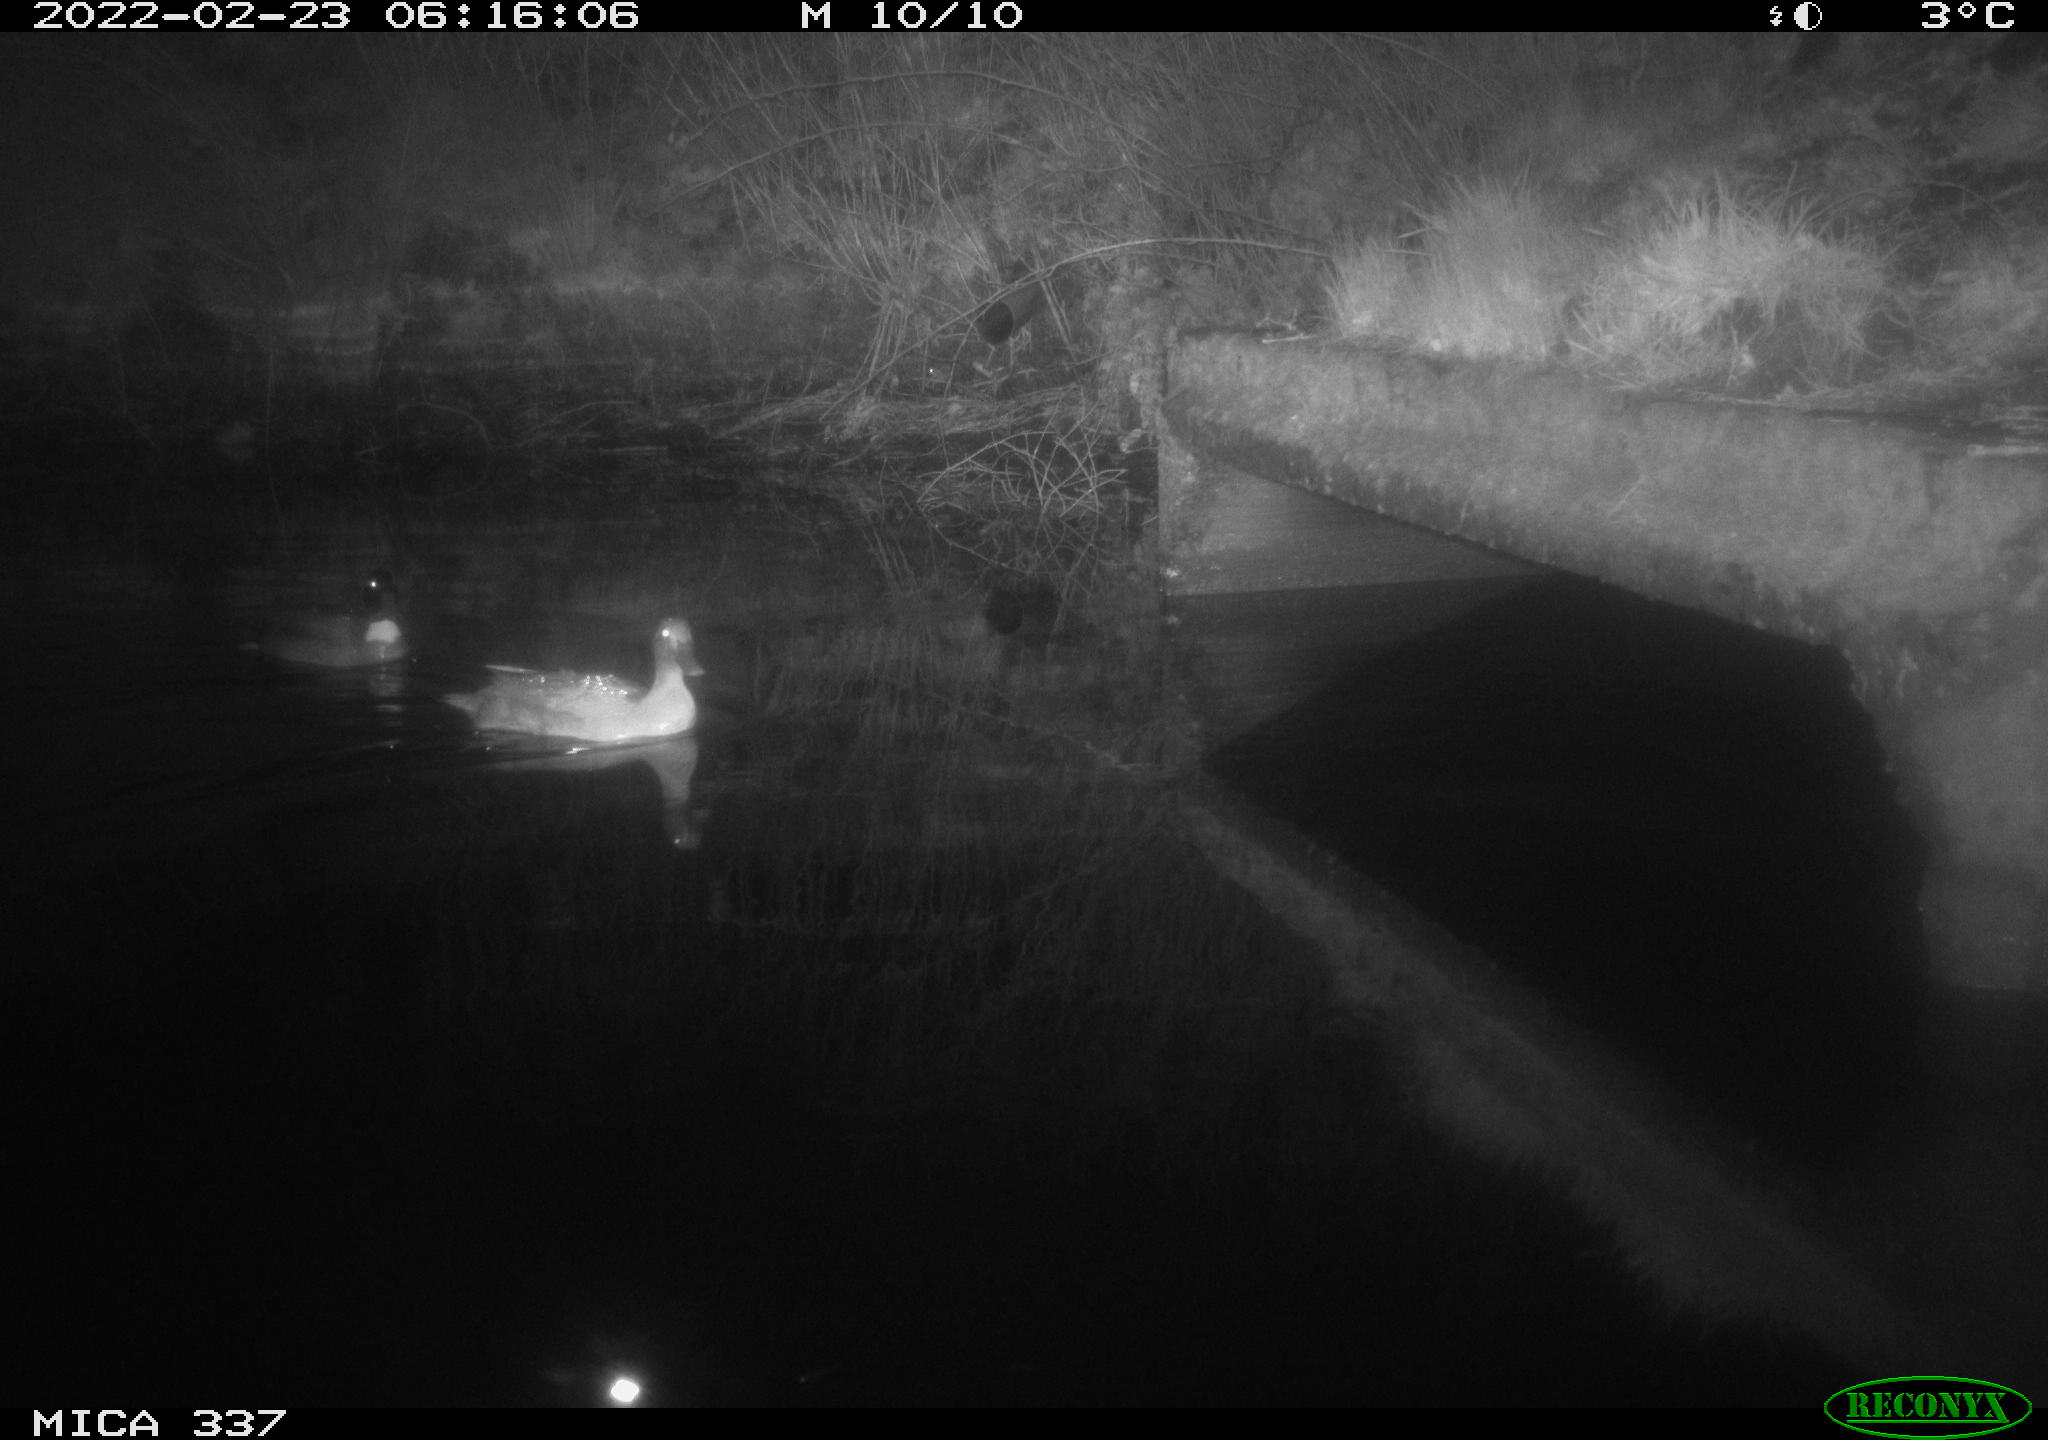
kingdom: Animalia
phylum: Chordata
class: Aves
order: Anseriformes
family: Anatidae
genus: Anas
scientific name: Anas platyrhynchos
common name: Mallard
